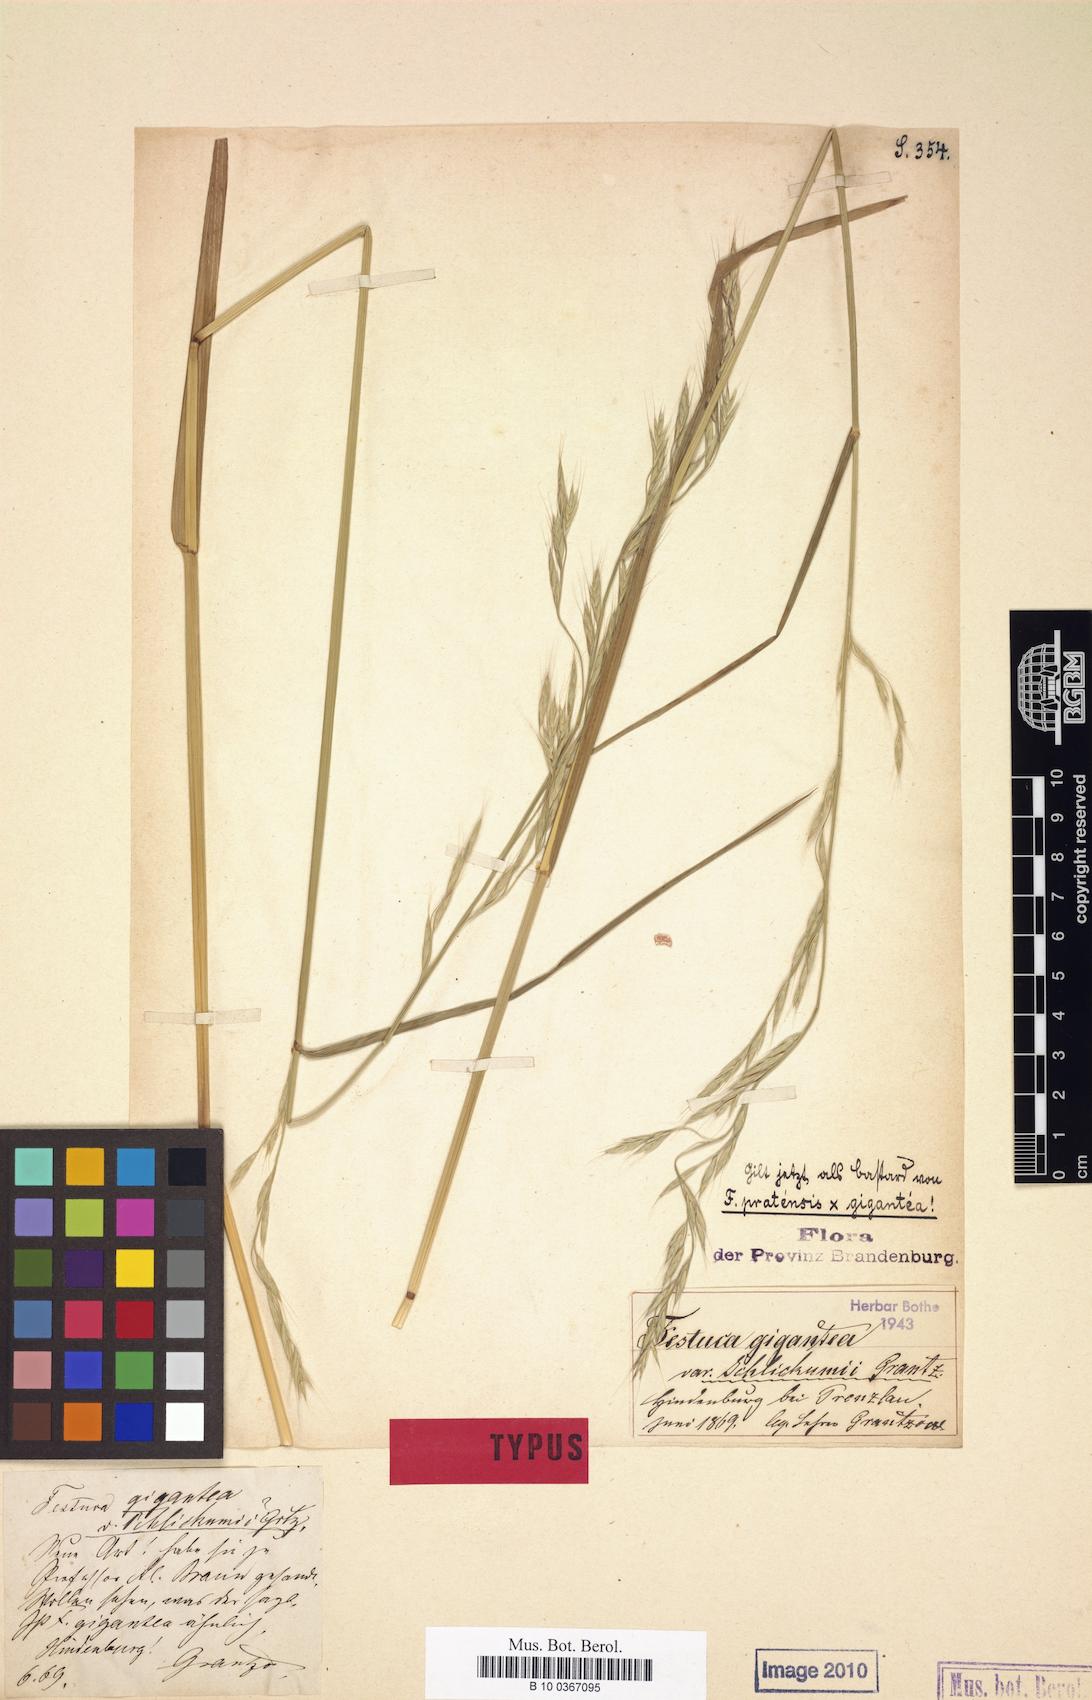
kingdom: Plantae
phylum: Tracheophyta
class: Liliopsida
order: Poales
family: Poaceae
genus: Lolium
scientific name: Lolium schlickumii
